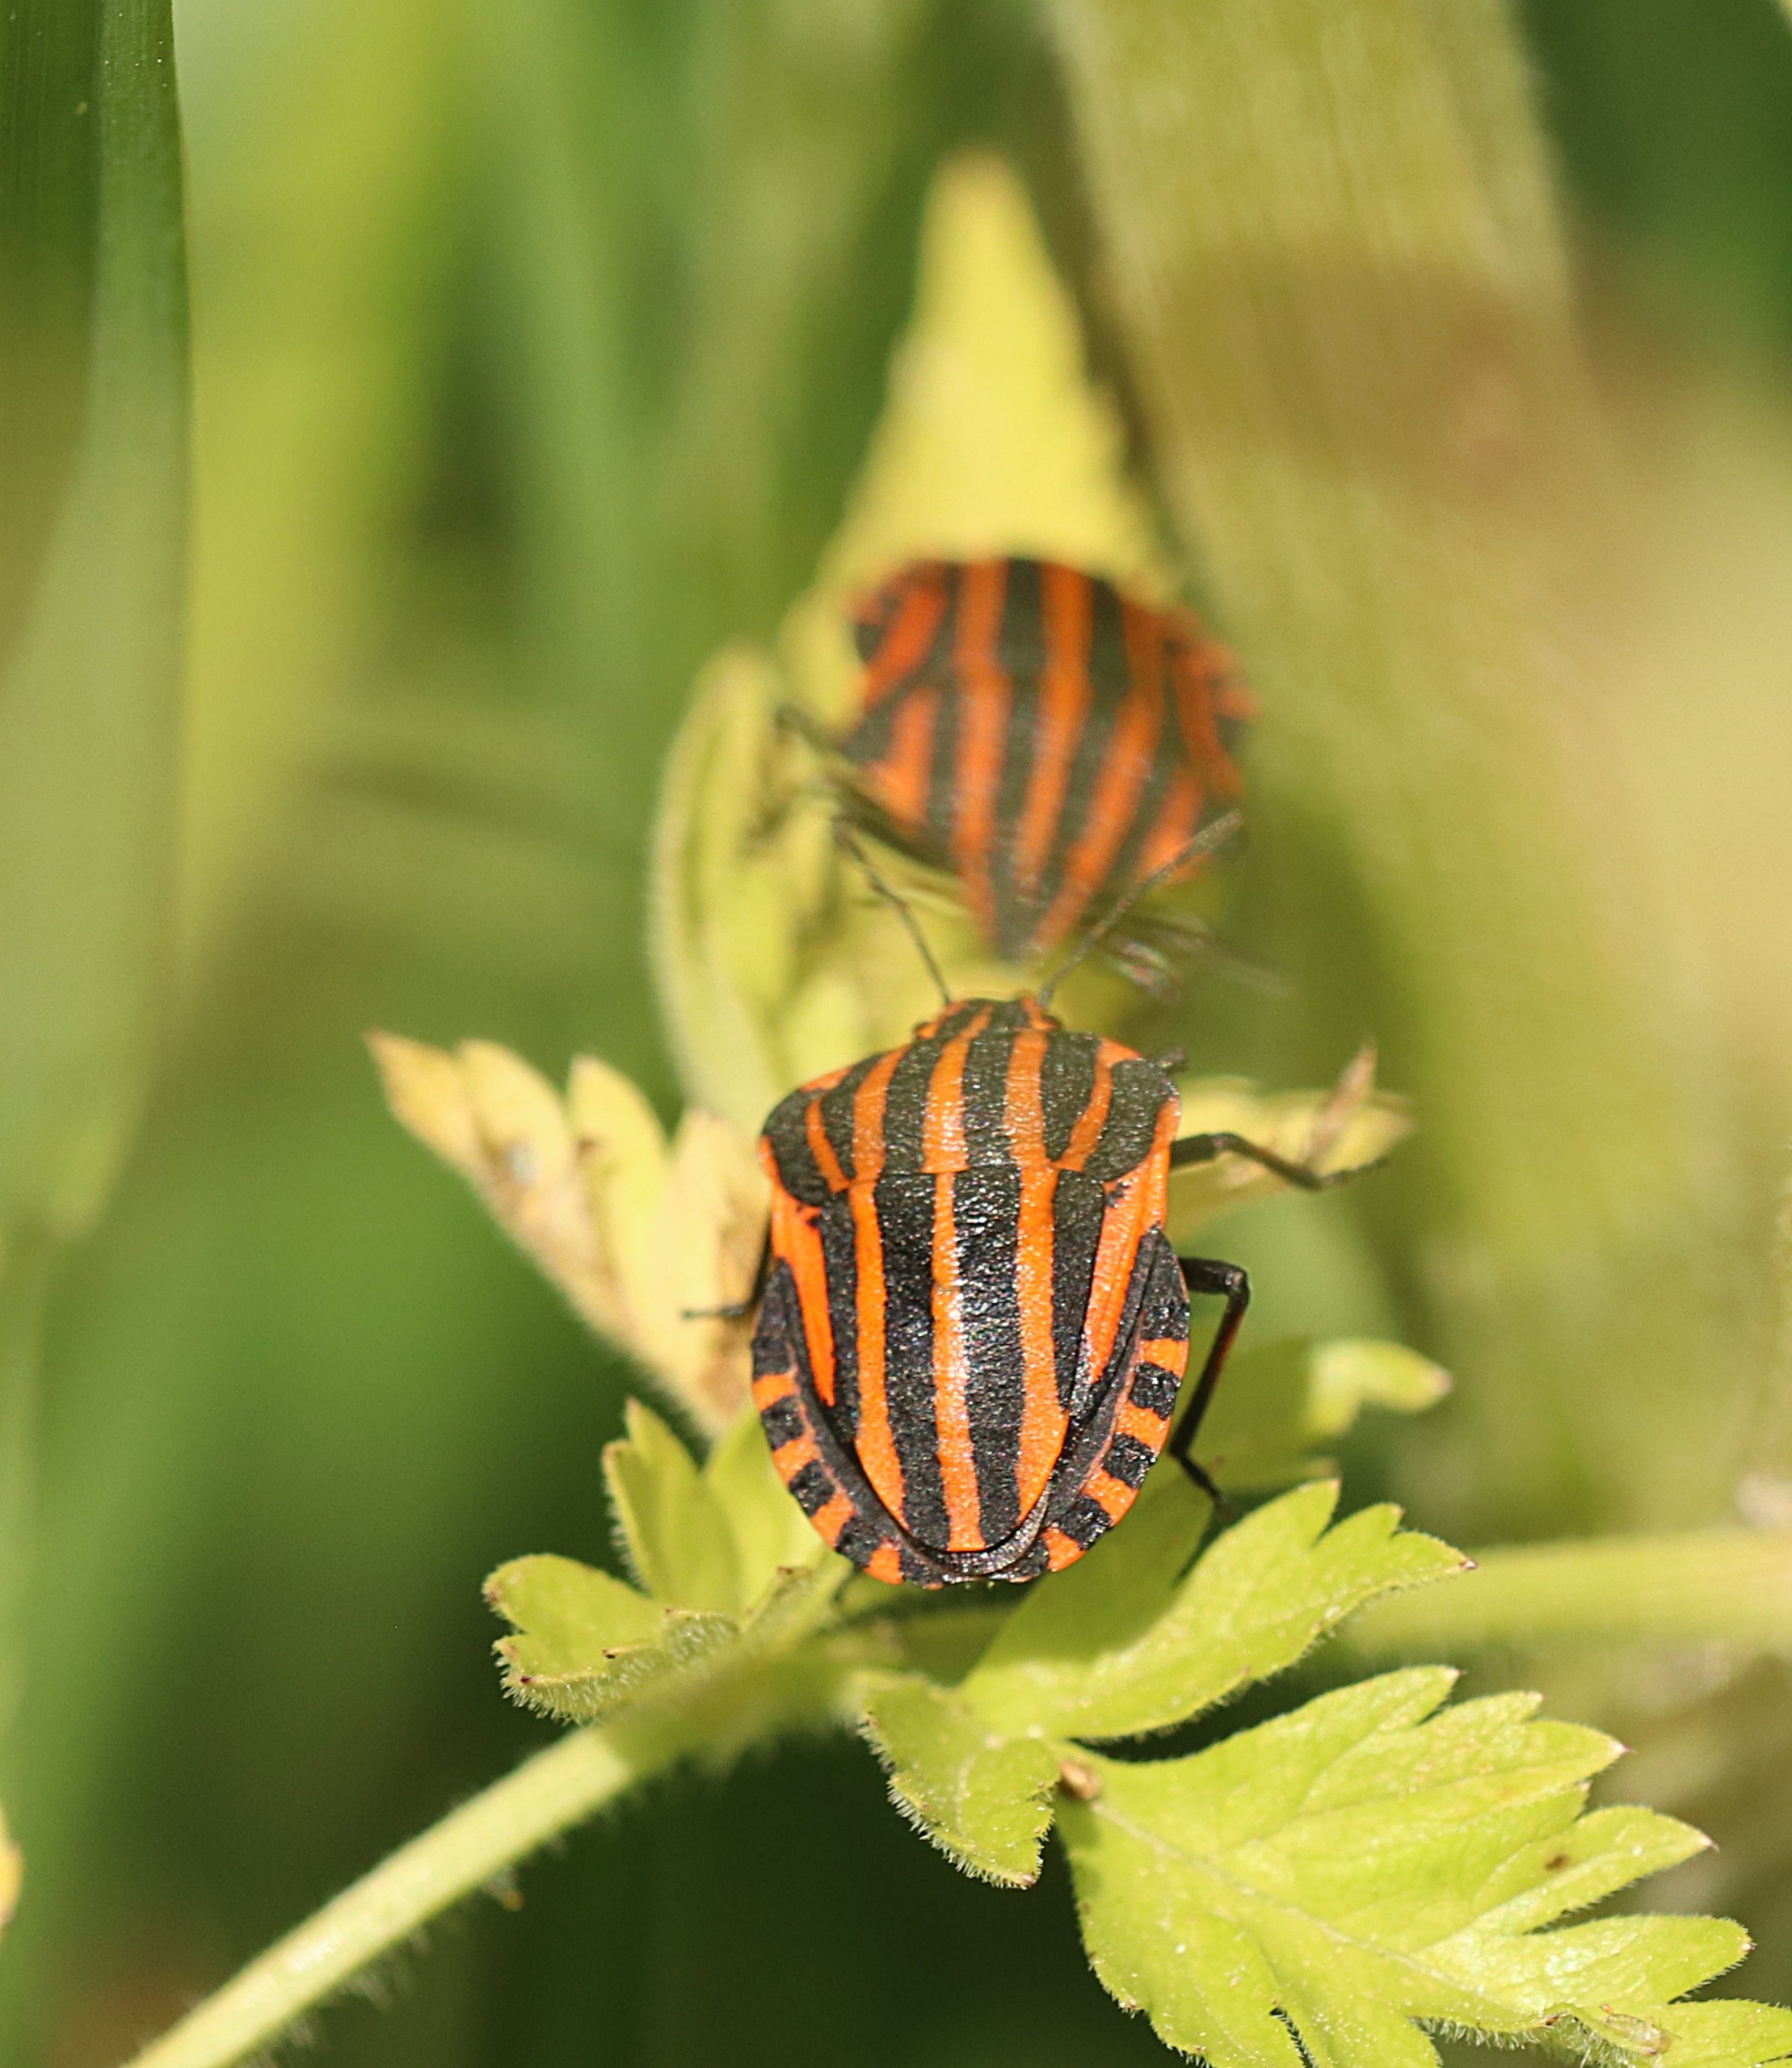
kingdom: Animalia
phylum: Arthropoda
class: Insecta
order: Hemiptera
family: Pentatomidae
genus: Graphosoma
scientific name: Graphosoma italicum
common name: Stribetæge
